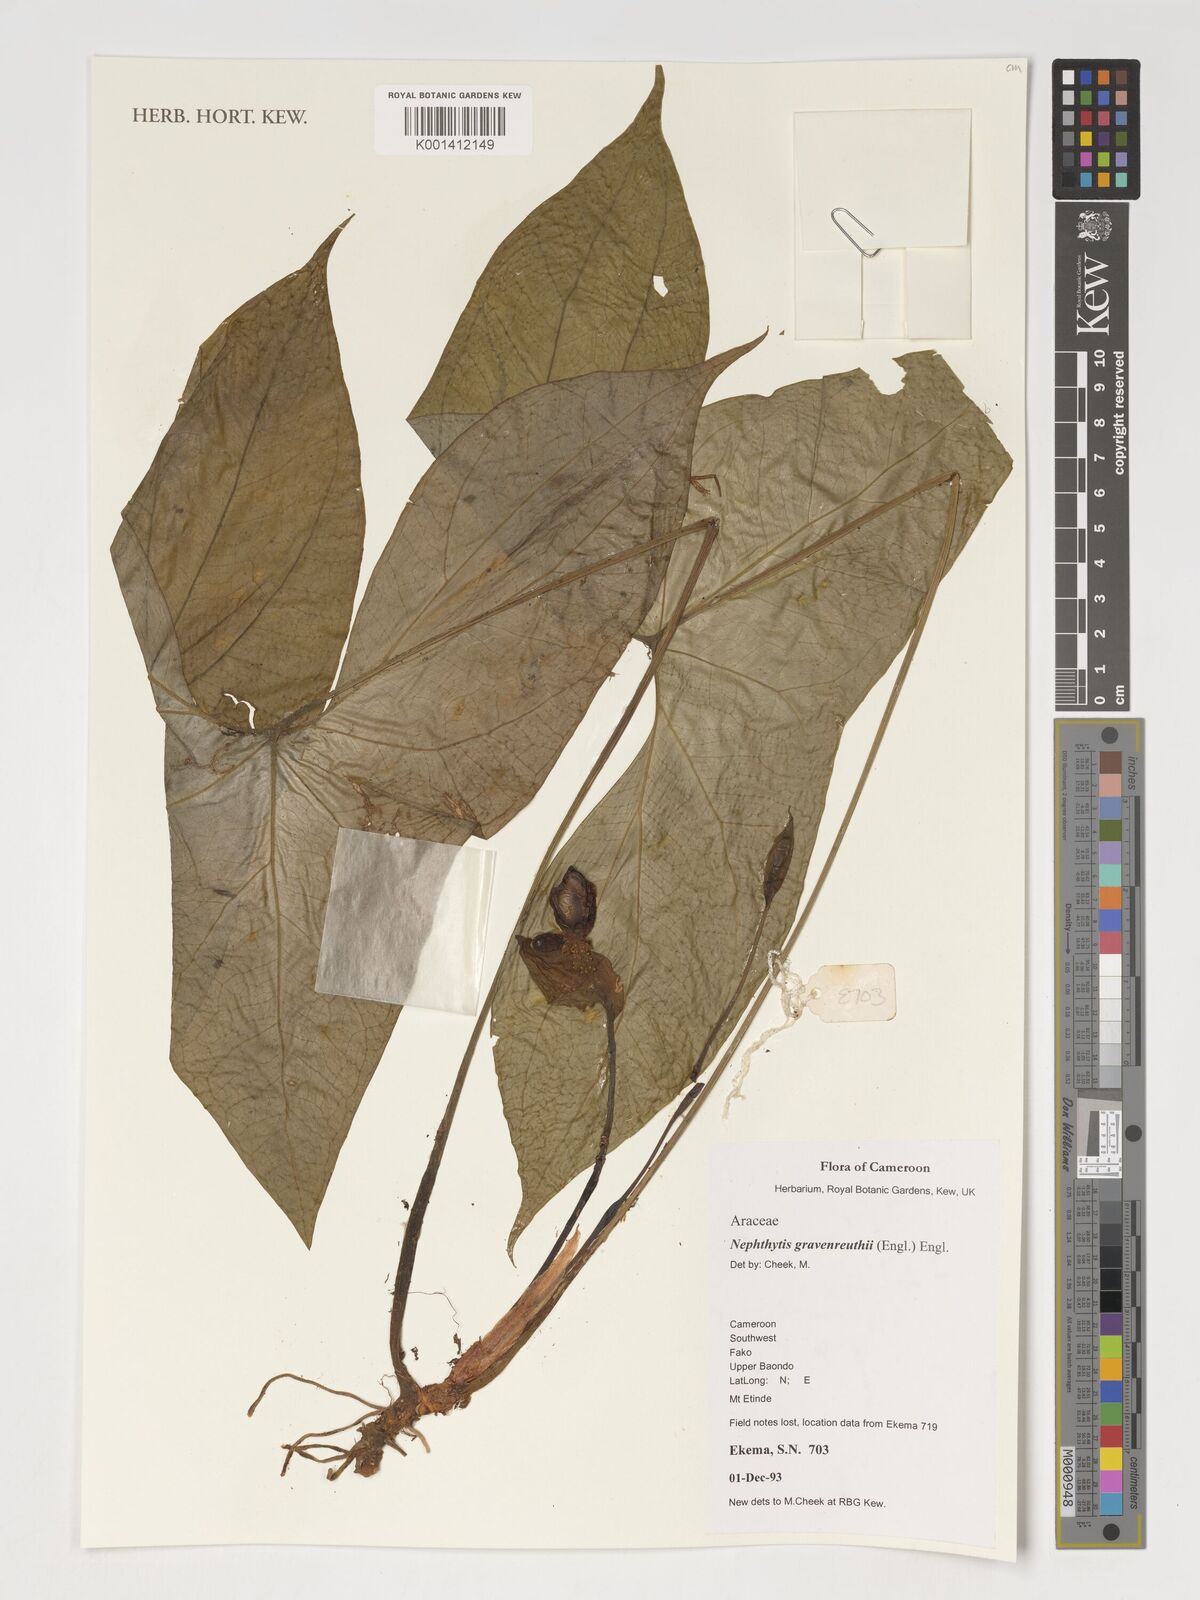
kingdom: Plantae
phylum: Tracheophyta
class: Liliopsida
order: Alismatales
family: Araceae
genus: Nephthytis
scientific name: Nephthytis poissonii
